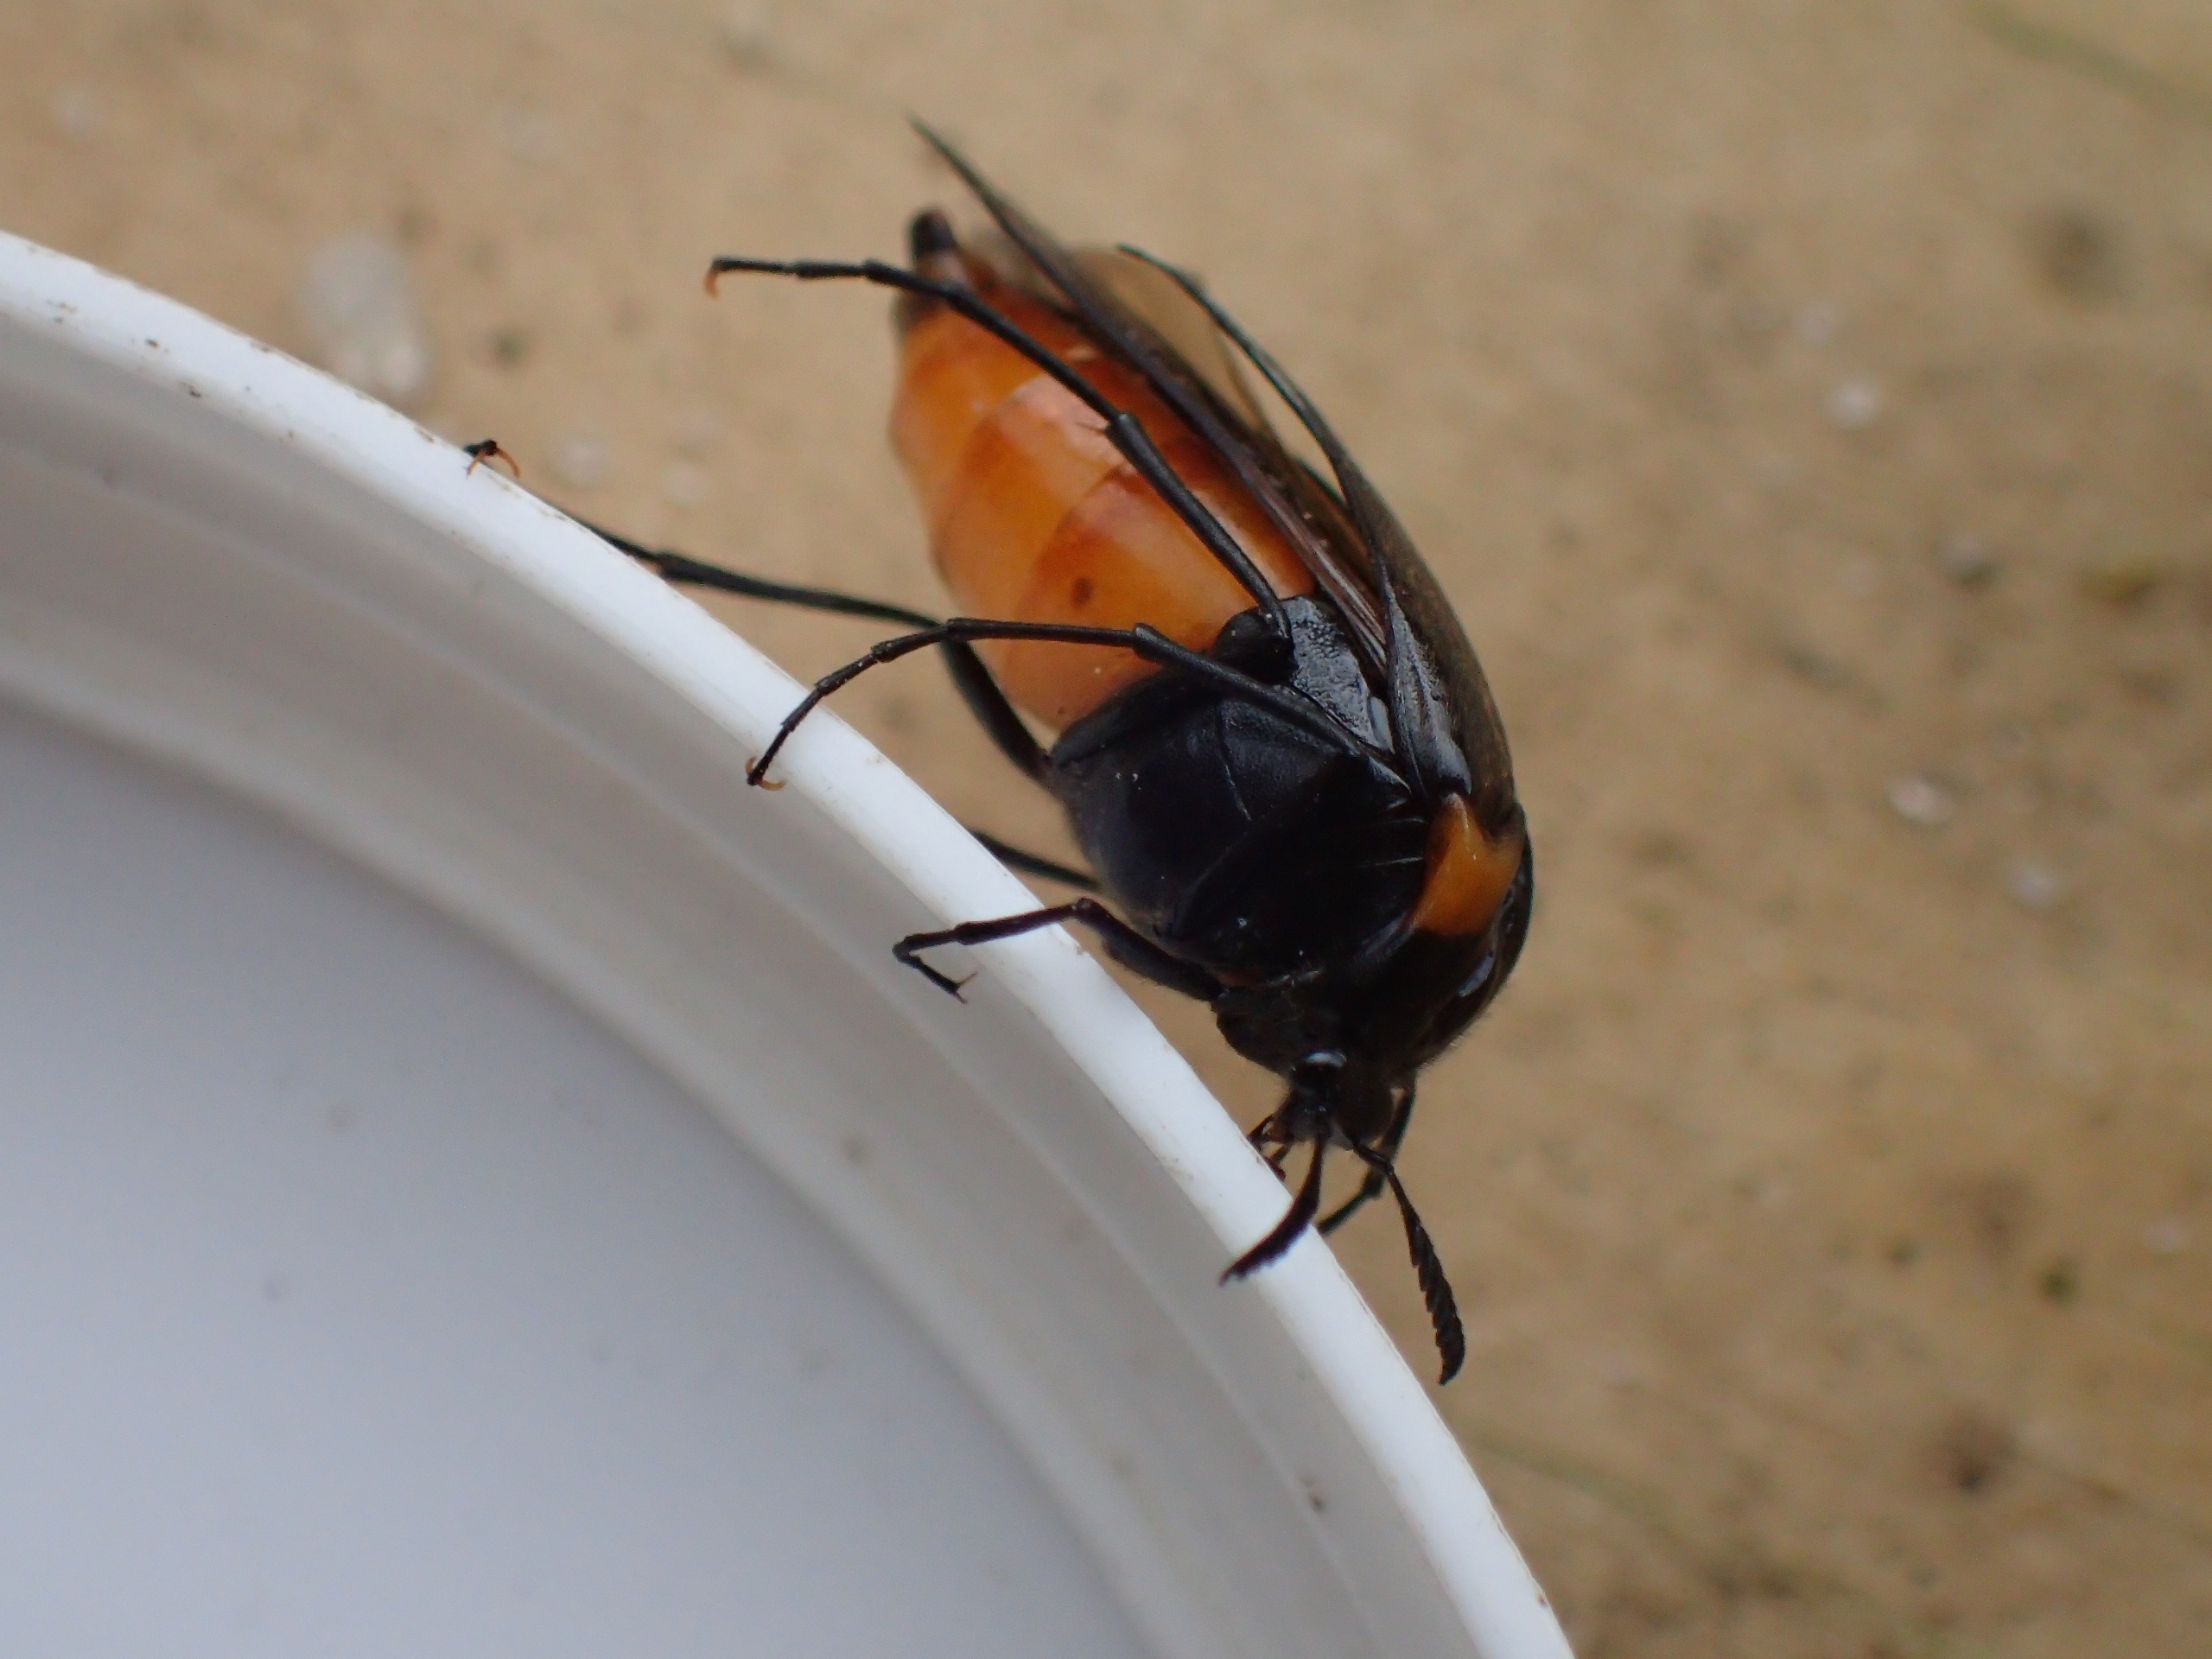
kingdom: Animalia
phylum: Arthropoda
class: Insecta
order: Coleoptera
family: Ripiphoridae
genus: Metoecus
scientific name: Metoecus paradoxus
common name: Hvepsesnyltebille
